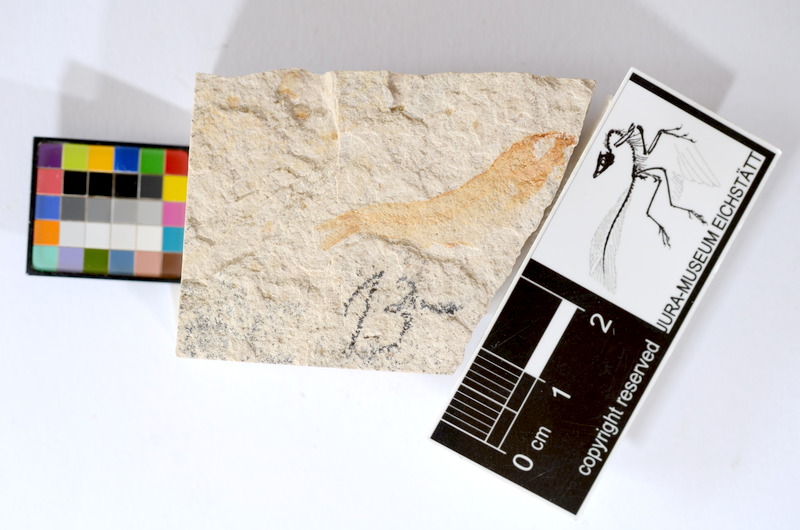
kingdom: Animalia
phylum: Chordata
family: Ascalaboidae
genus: Tharsis
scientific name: Tharsis dubius
